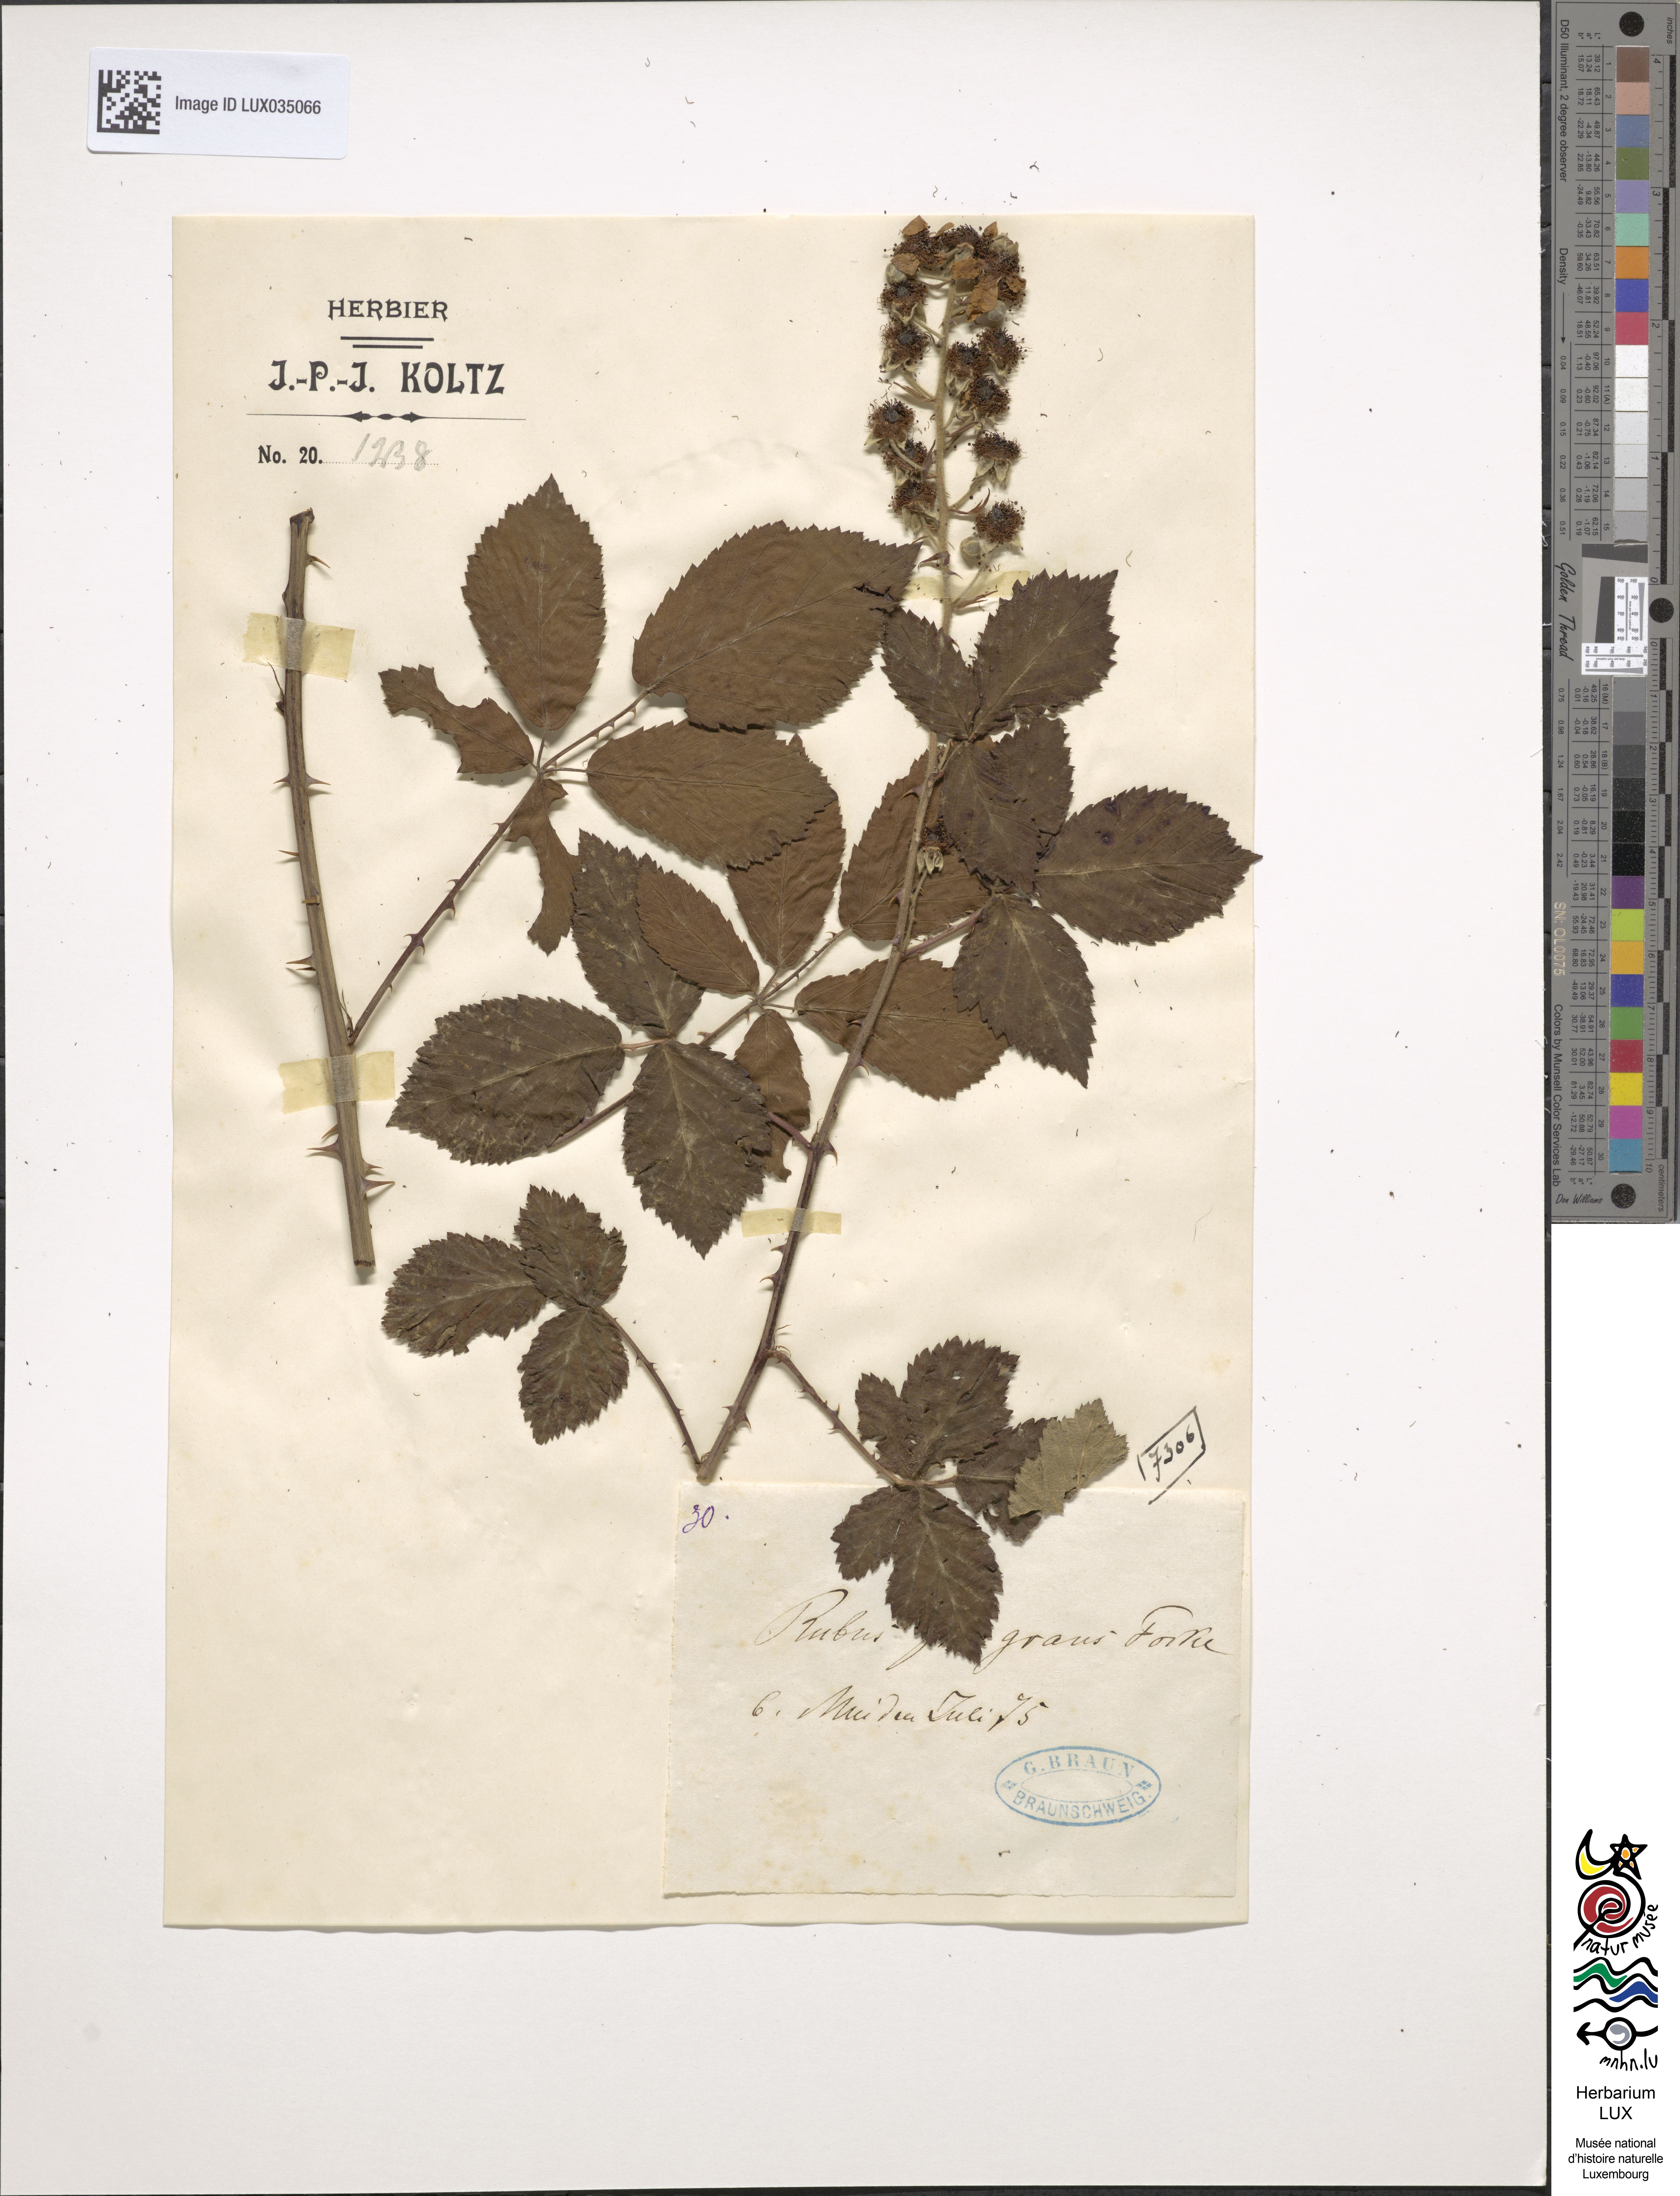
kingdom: Plantae
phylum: Tracheophyta
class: Magnoliopsida
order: Rosales
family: Rosaceae
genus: Rubus
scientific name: Rubus flaccidus
